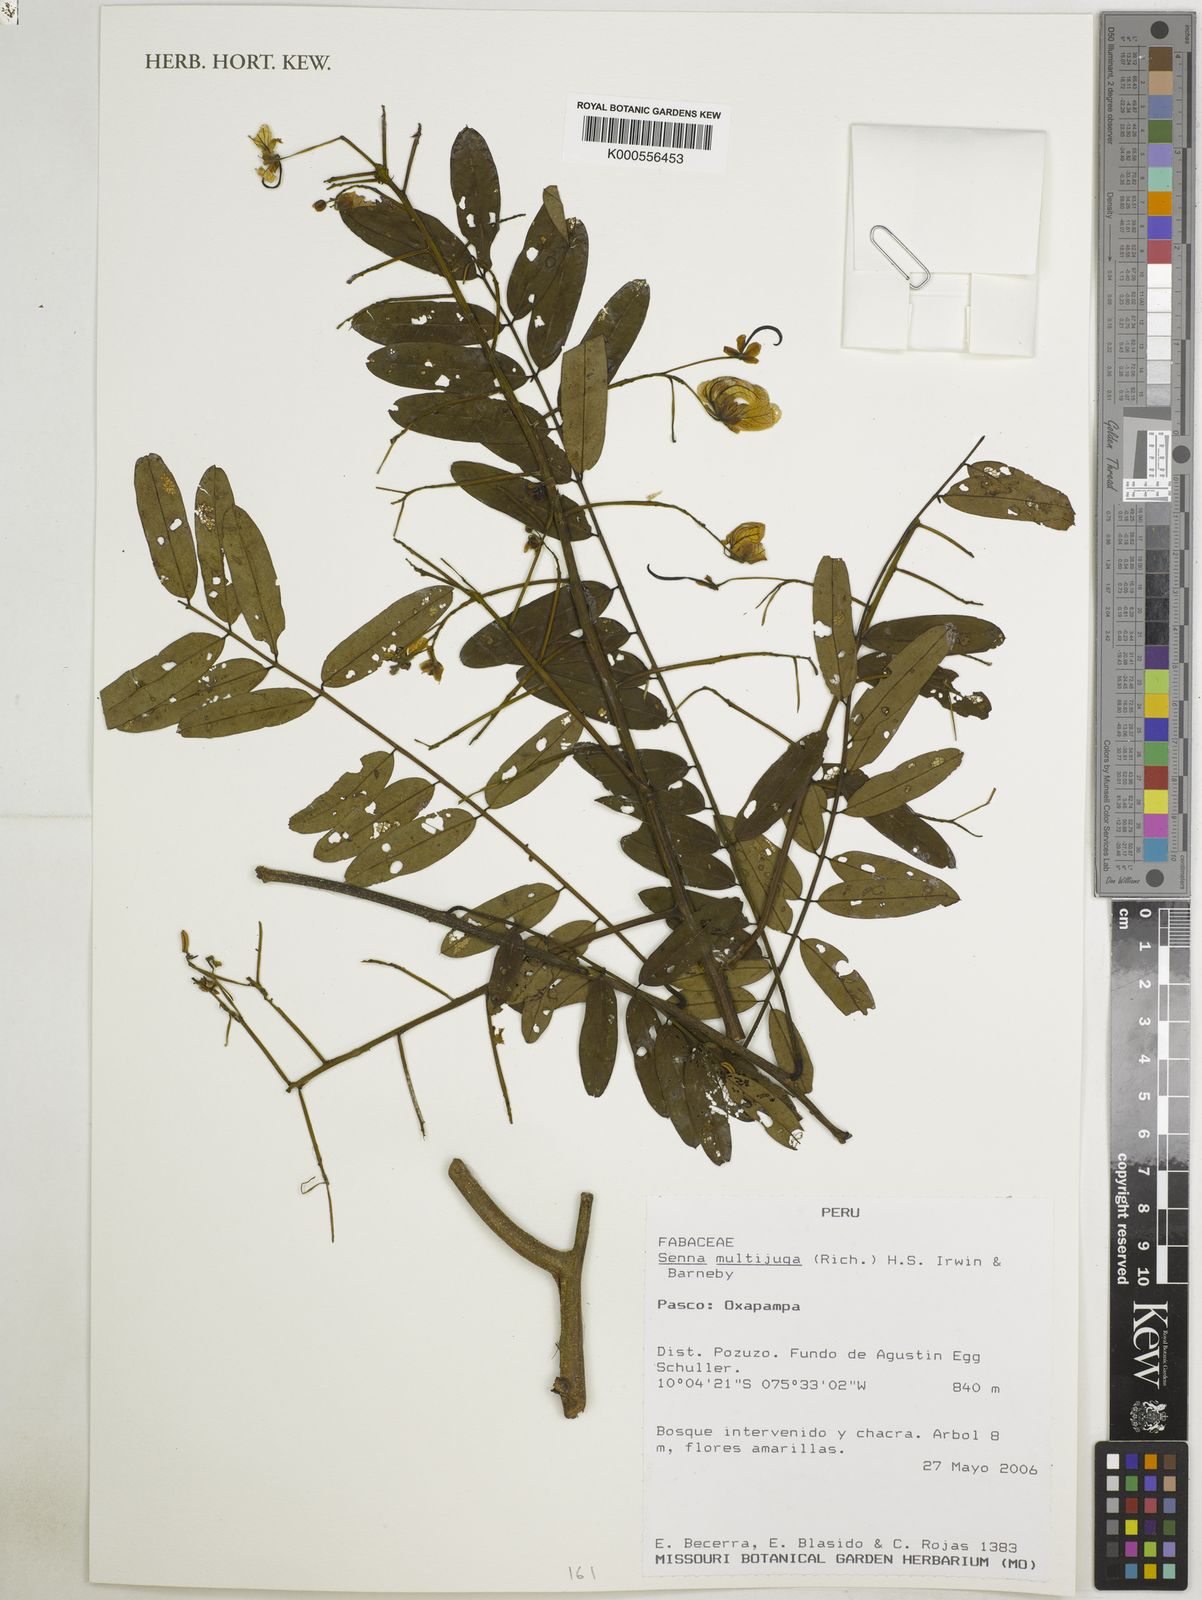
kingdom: Plantae
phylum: Tracheophyta
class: Magnoliopsida
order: Fabales
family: Fabaceae
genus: Senna
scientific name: Senna multijuga
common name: False sicklepod
